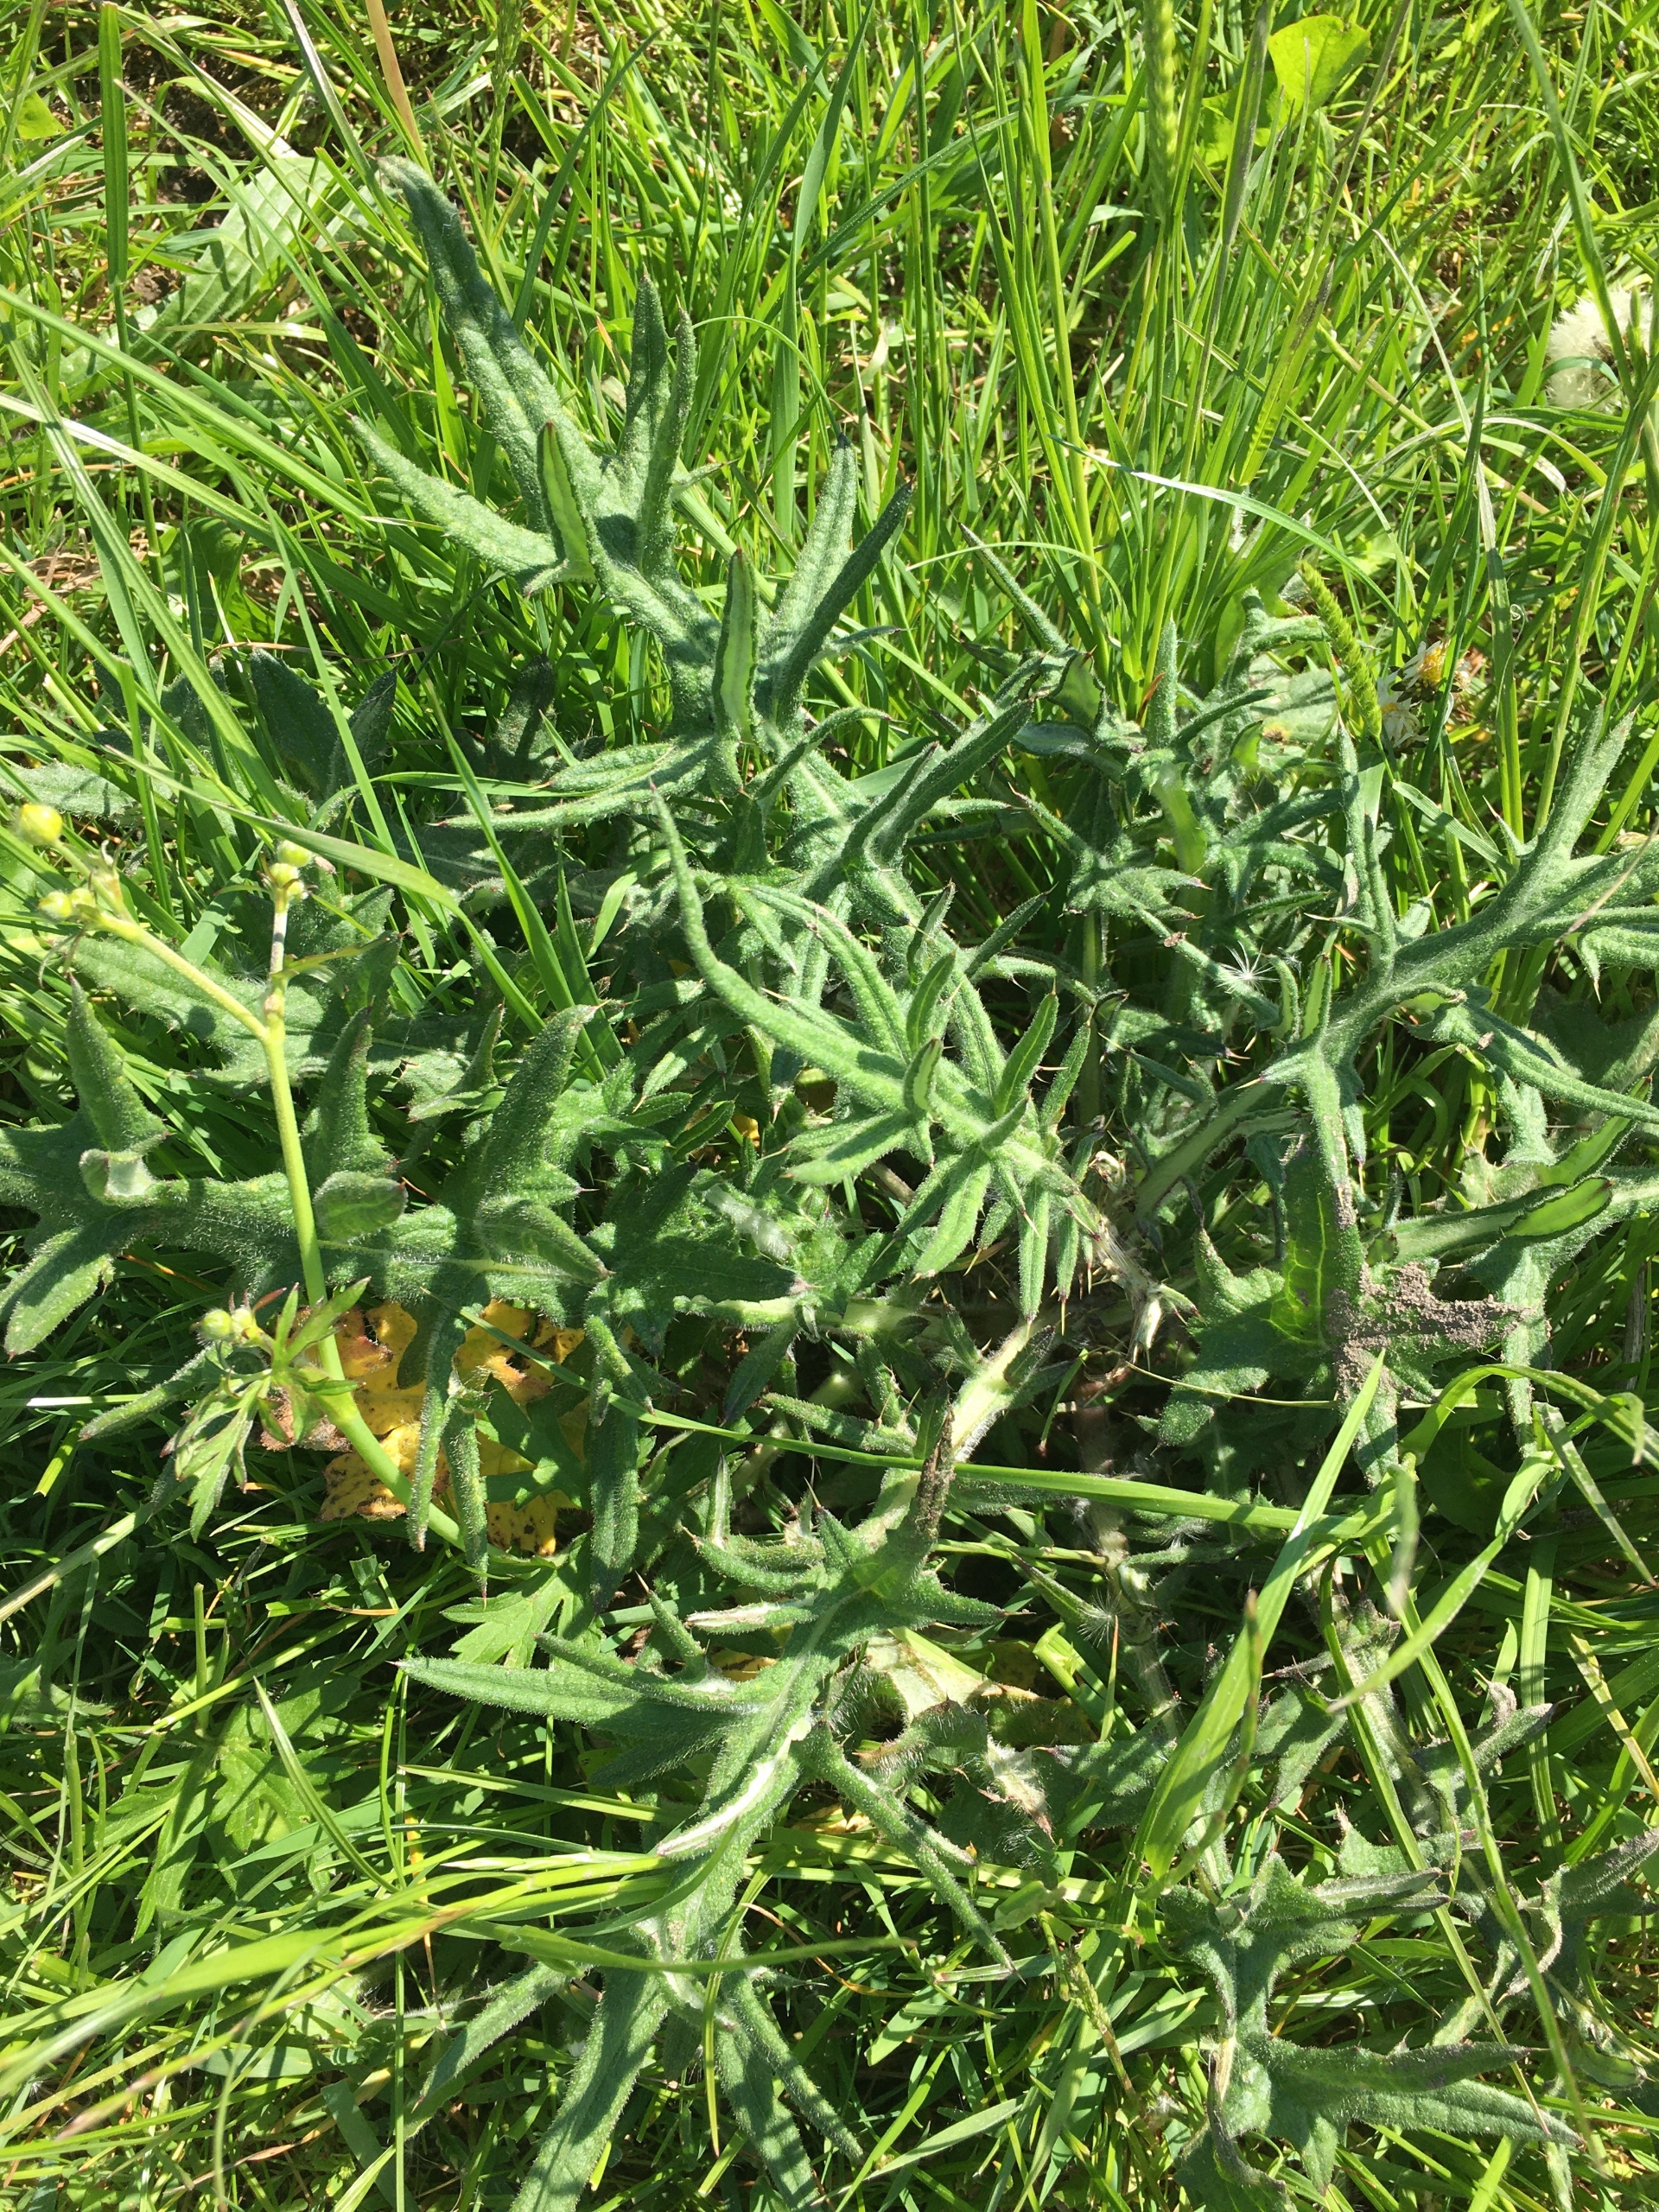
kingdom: Plantae
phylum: Tracheophyta
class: Magnoliopsida
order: Asterales
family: Asteraceae
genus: Cirsium
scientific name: Cirsium vulgare
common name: Horse-tidsel
